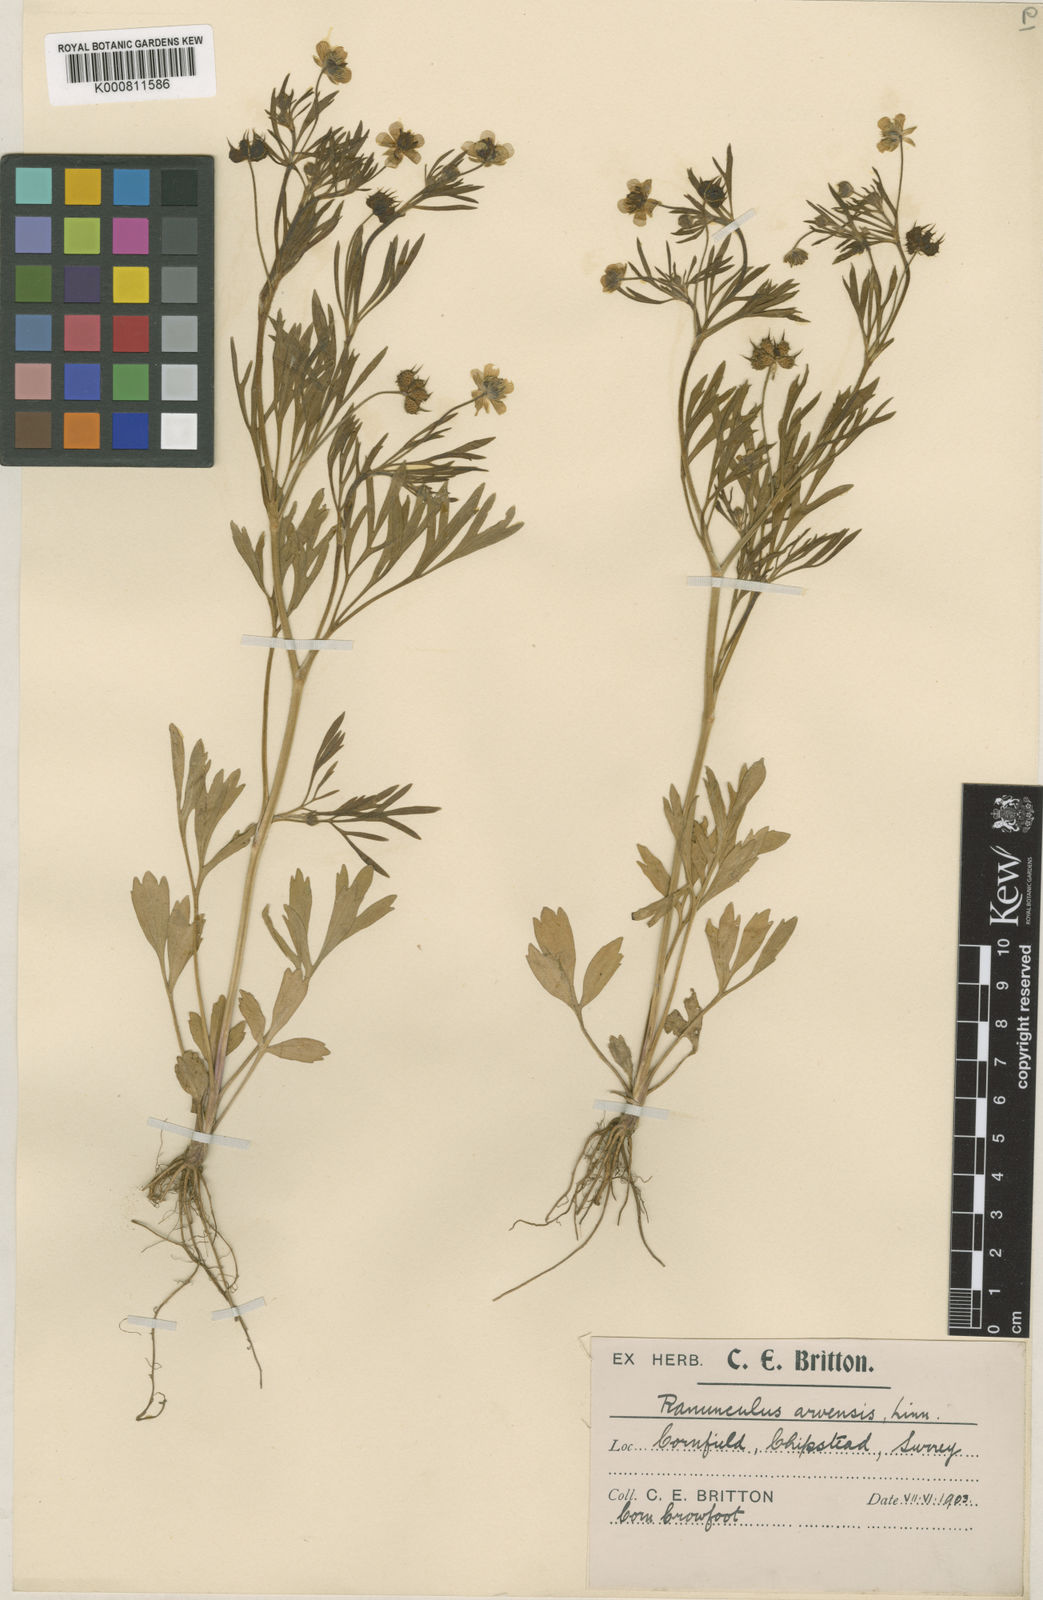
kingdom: Plantae
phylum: Tracheophyta
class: Magnoliopsida
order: Ranunculales
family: Ranunculaceae
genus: Ranunculus
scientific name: Ranunculus arvensis
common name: Corn buttercup
